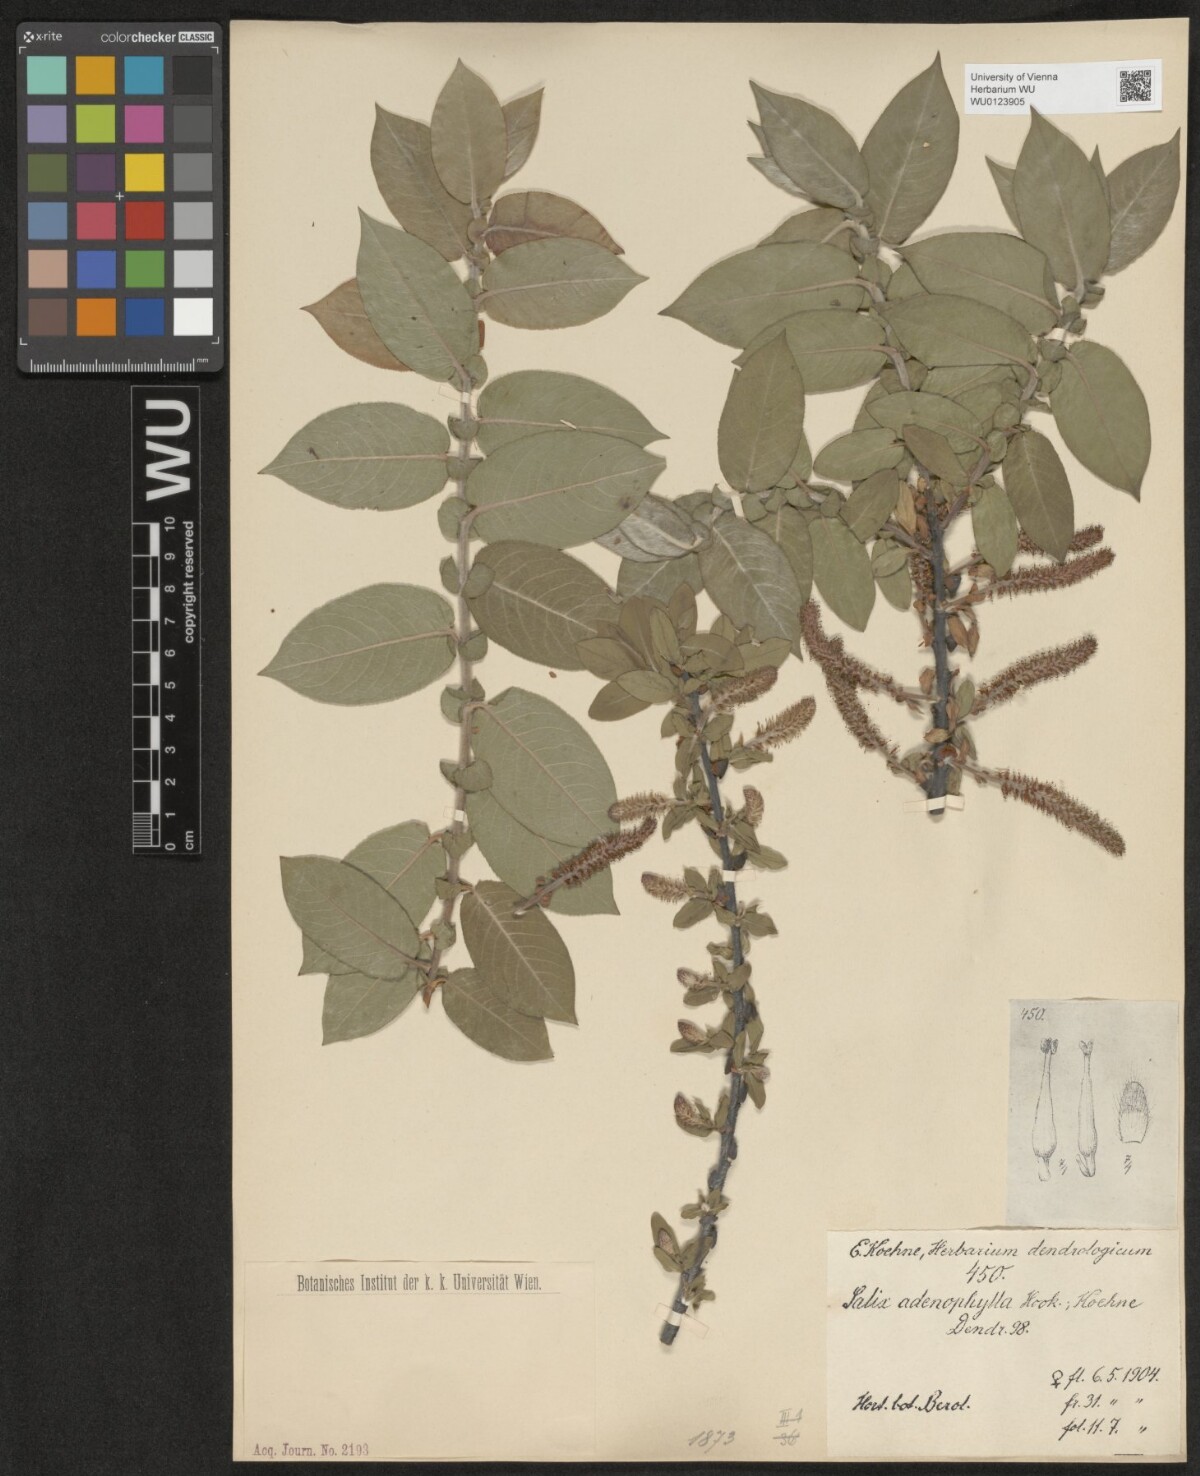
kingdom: Plantae
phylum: Tracheophyta
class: Magnoliopsida
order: Malpighiales
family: Salicaceae
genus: Salix
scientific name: Salix cordata
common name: Heart-leaf willow
